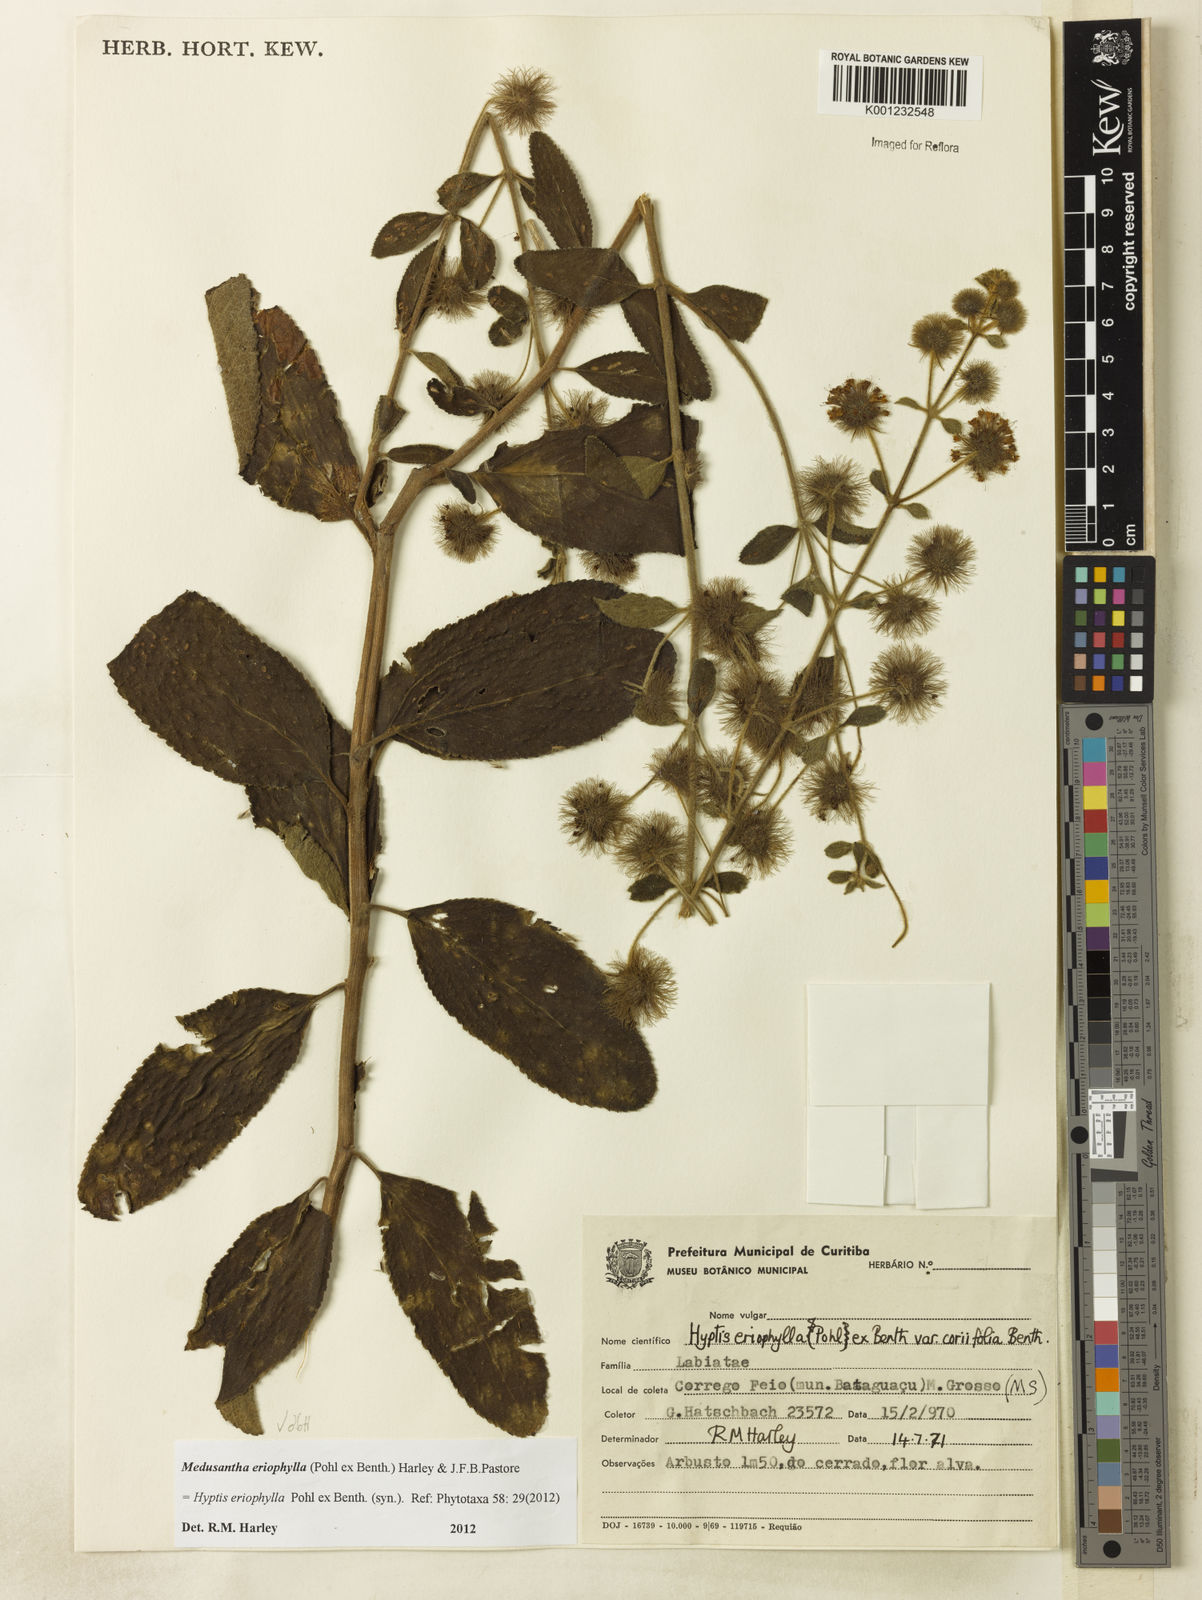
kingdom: Plantae
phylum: Tracheophyta
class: Magnoliopsida
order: Lamiales
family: Lamiaceae
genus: Medusantha
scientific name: Medusantha eriophylla
